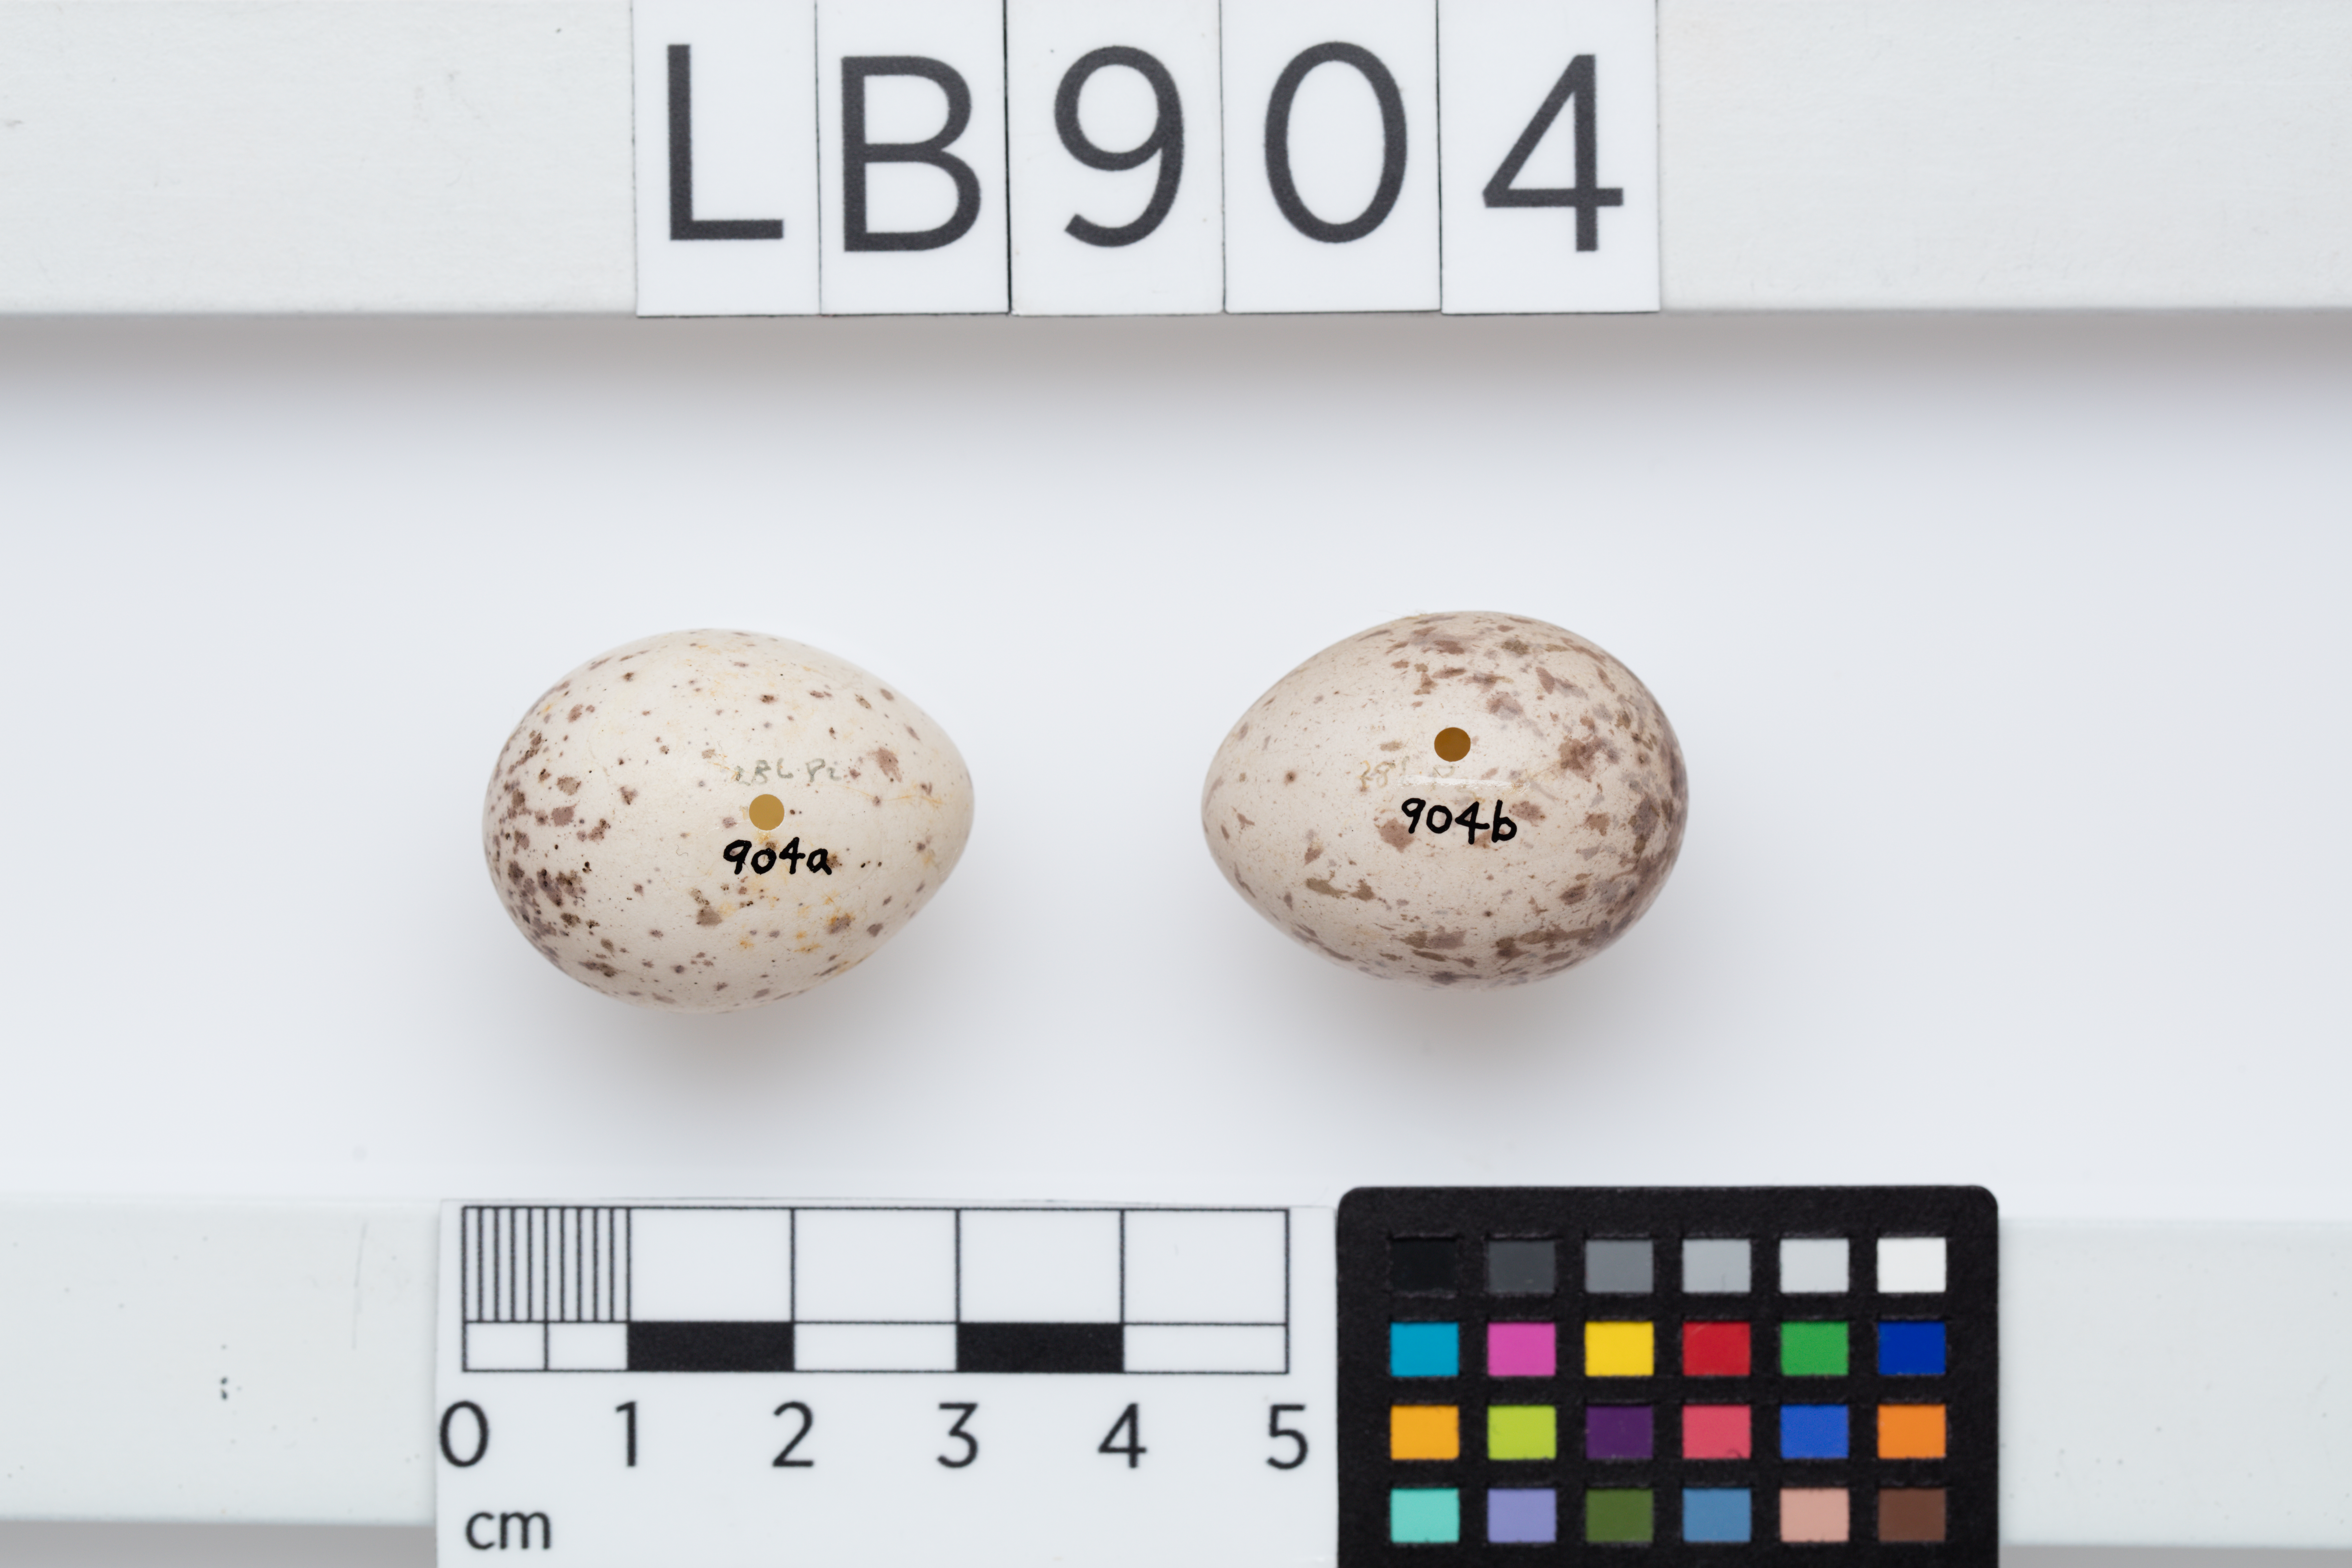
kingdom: Animalia
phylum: Chordata
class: Aves
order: Passeriformes
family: Callaeatidae
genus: Philesturnus
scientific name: Philesturnus carunculatus
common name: South island saddleback
